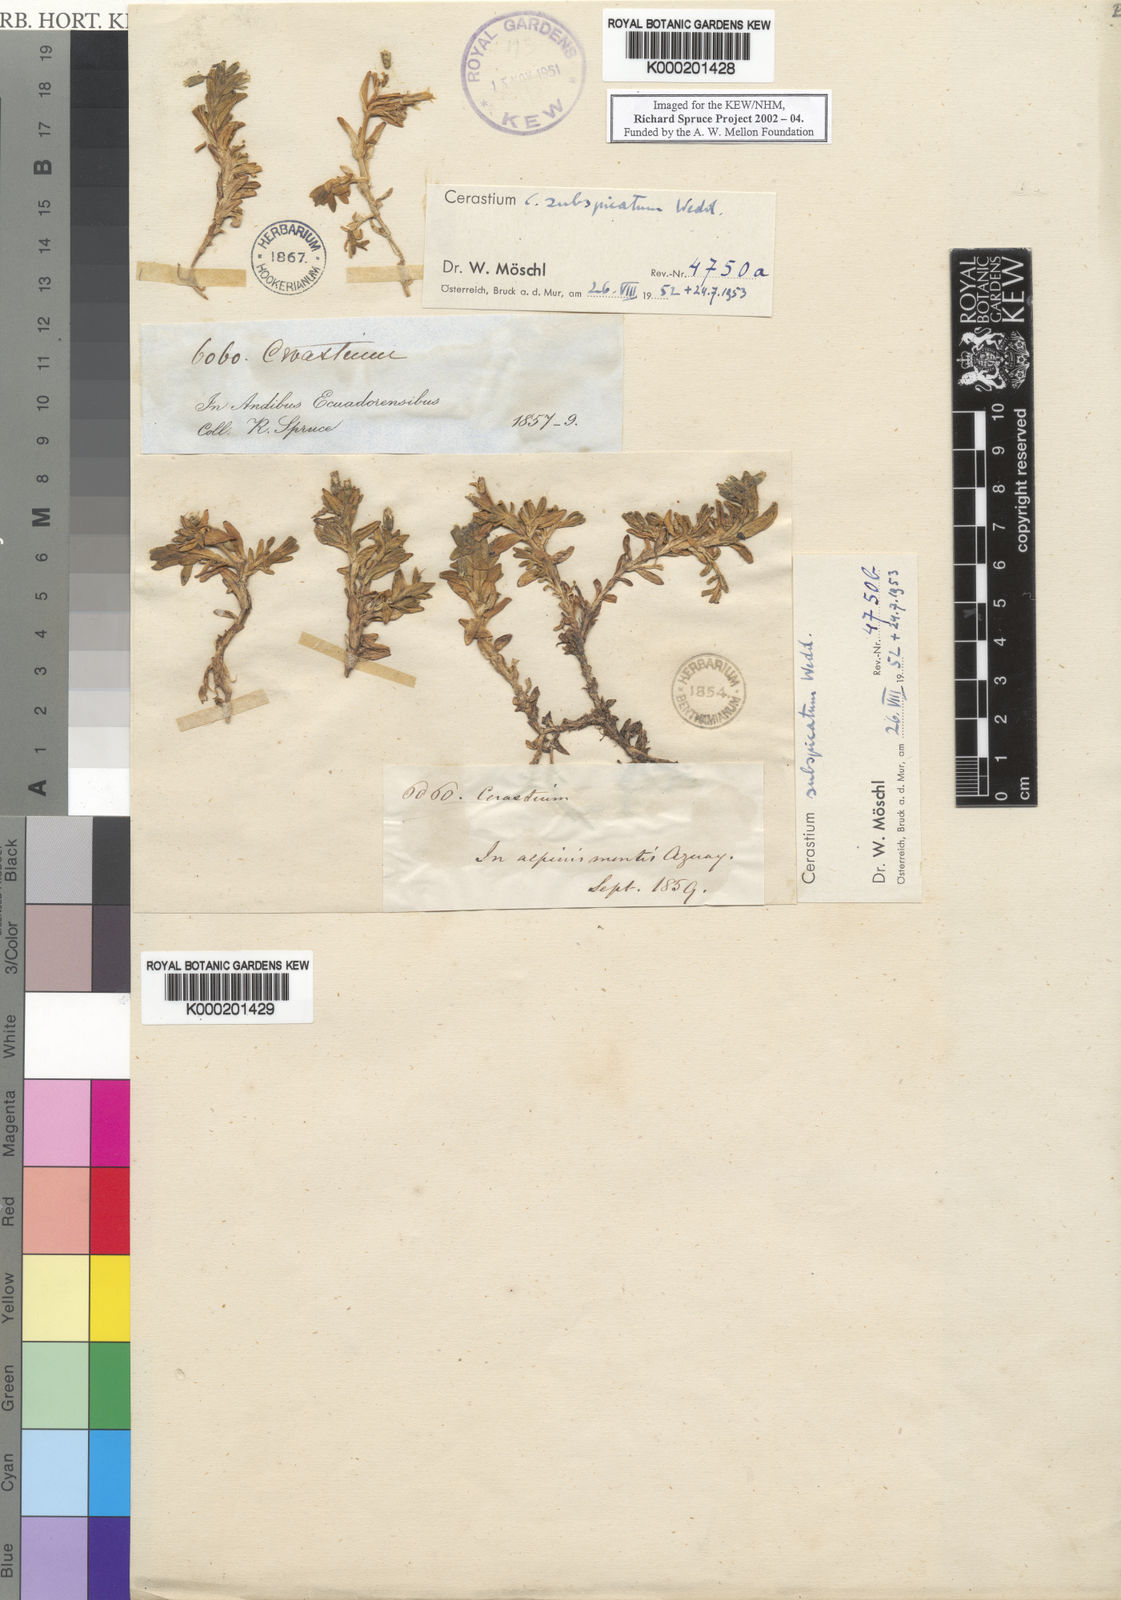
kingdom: Plantae
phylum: Tracheophyta
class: Magnoliopsida
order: Caryophyllales
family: Caryophyllaceae
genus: Cerastium
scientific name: Cerastium subspicatum
